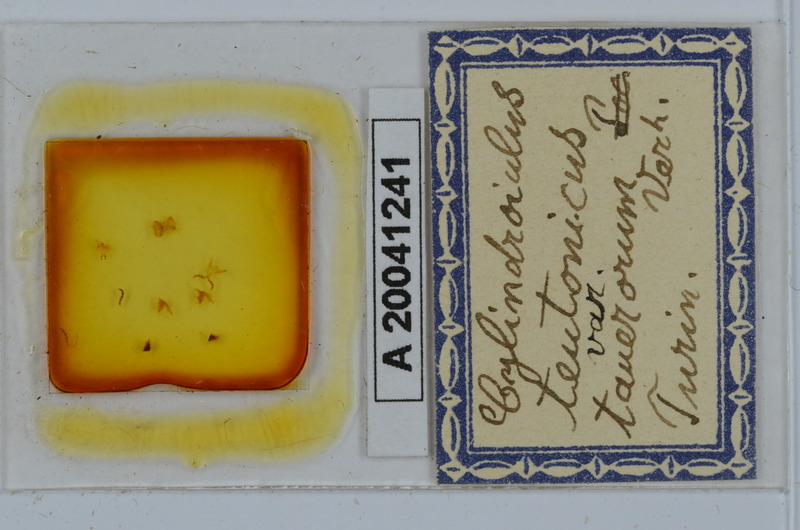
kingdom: Animalia
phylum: Arthropoda
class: Diplopoda
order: Julida
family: Julidae
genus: Cylindroiulus
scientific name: Cylindroiulus teutonicus
